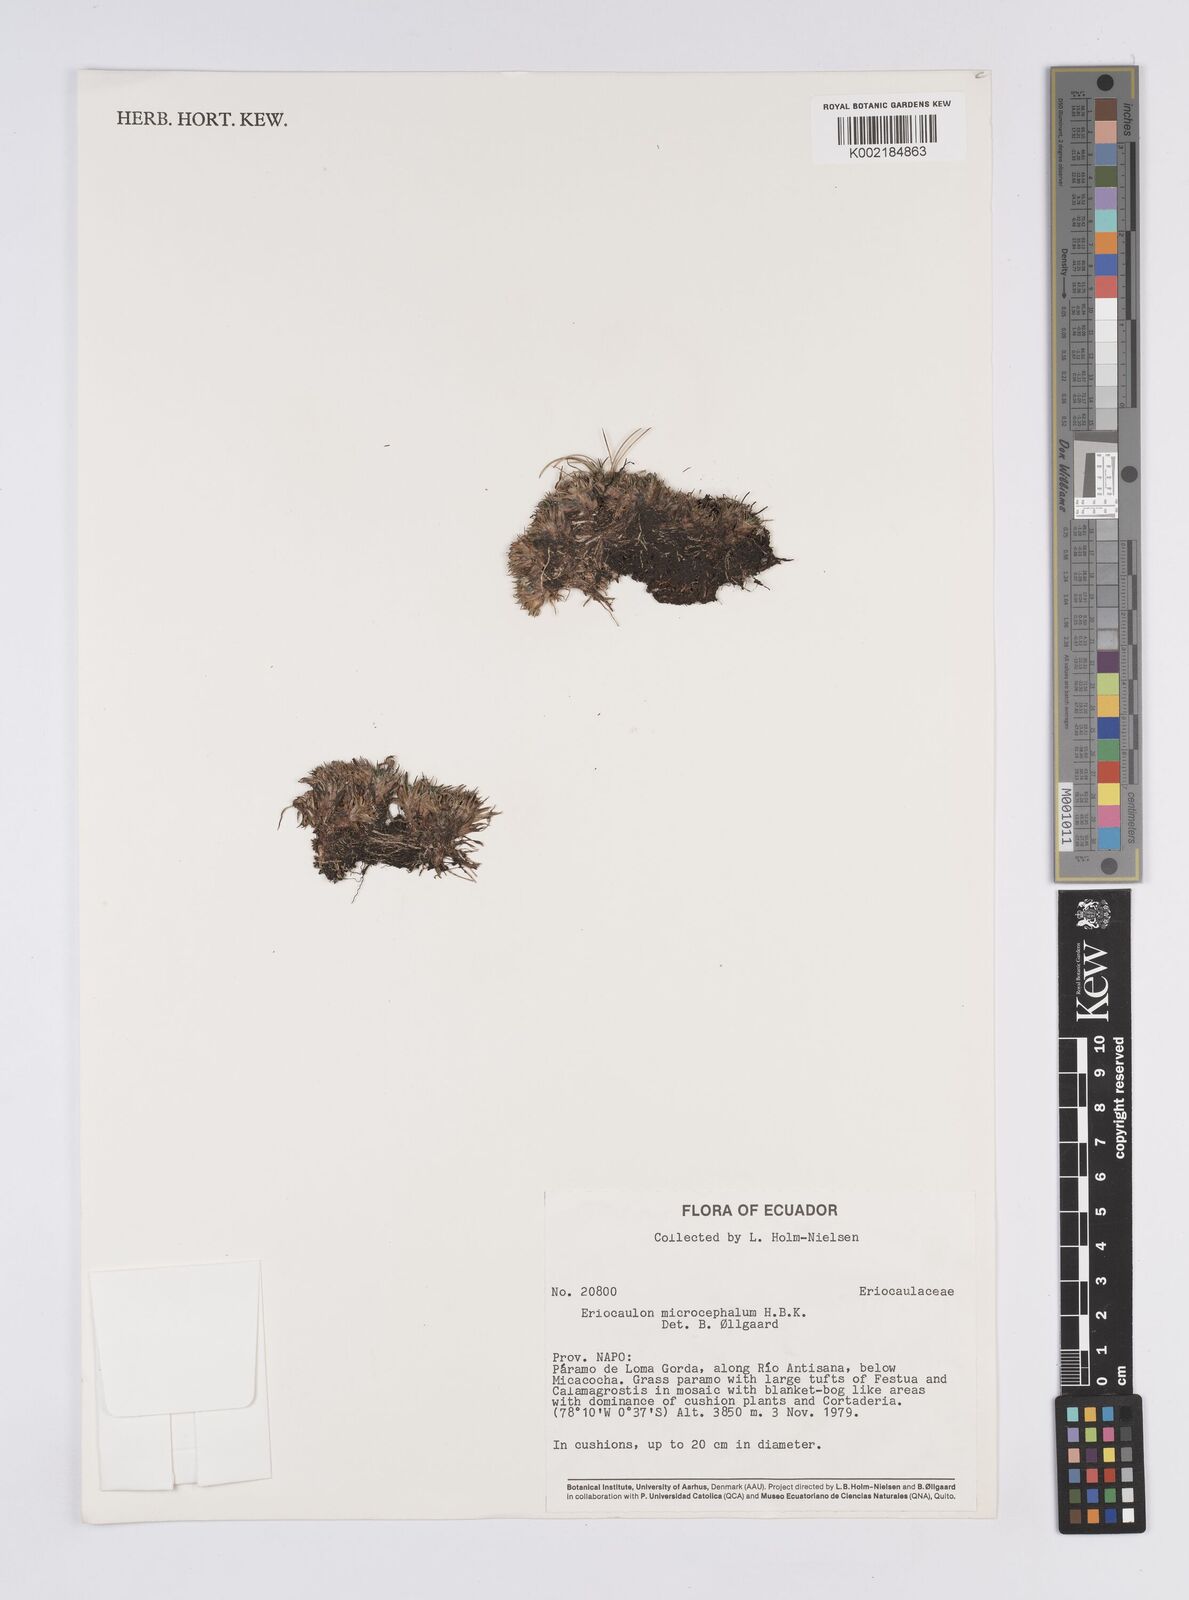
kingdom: Plantae
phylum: Tracheophyta
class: Liliopsida
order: Poales
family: Eriocaulaceae
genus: Eriocaulon
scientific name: Eriocaulon benthamii
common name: Bentham's pipewort
